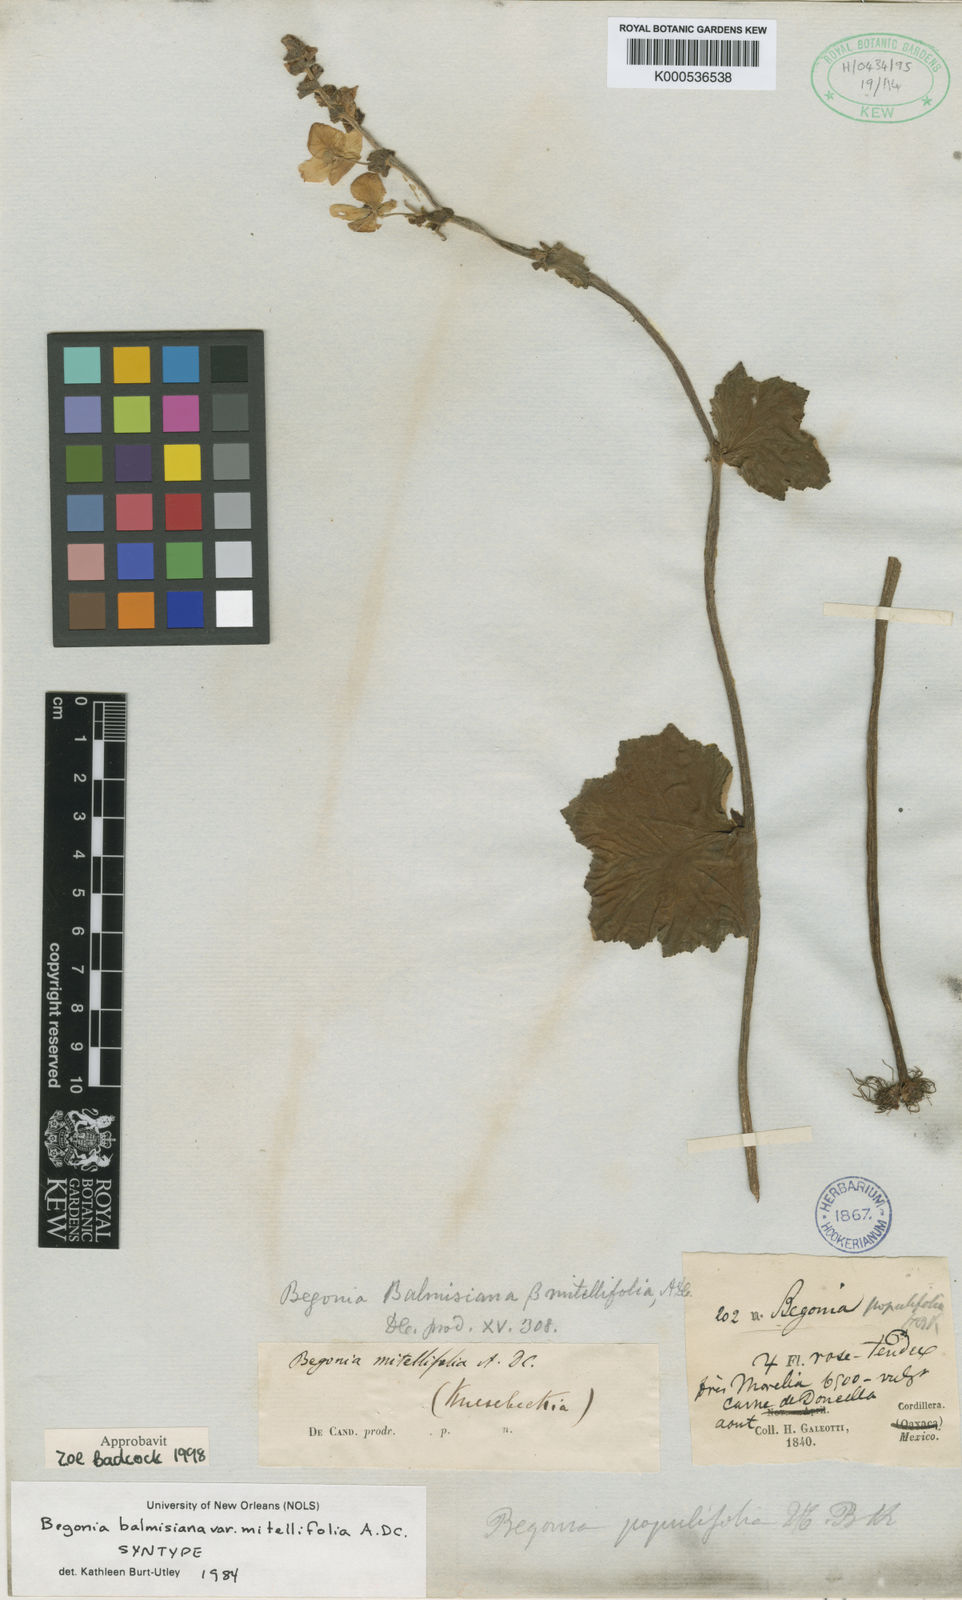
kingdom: Plantae
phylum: Tracheophyta
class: Magnoliopsida
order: Cucurbitales
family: Begoniaceae
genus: Begonia
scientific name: Begonia balmisiana
